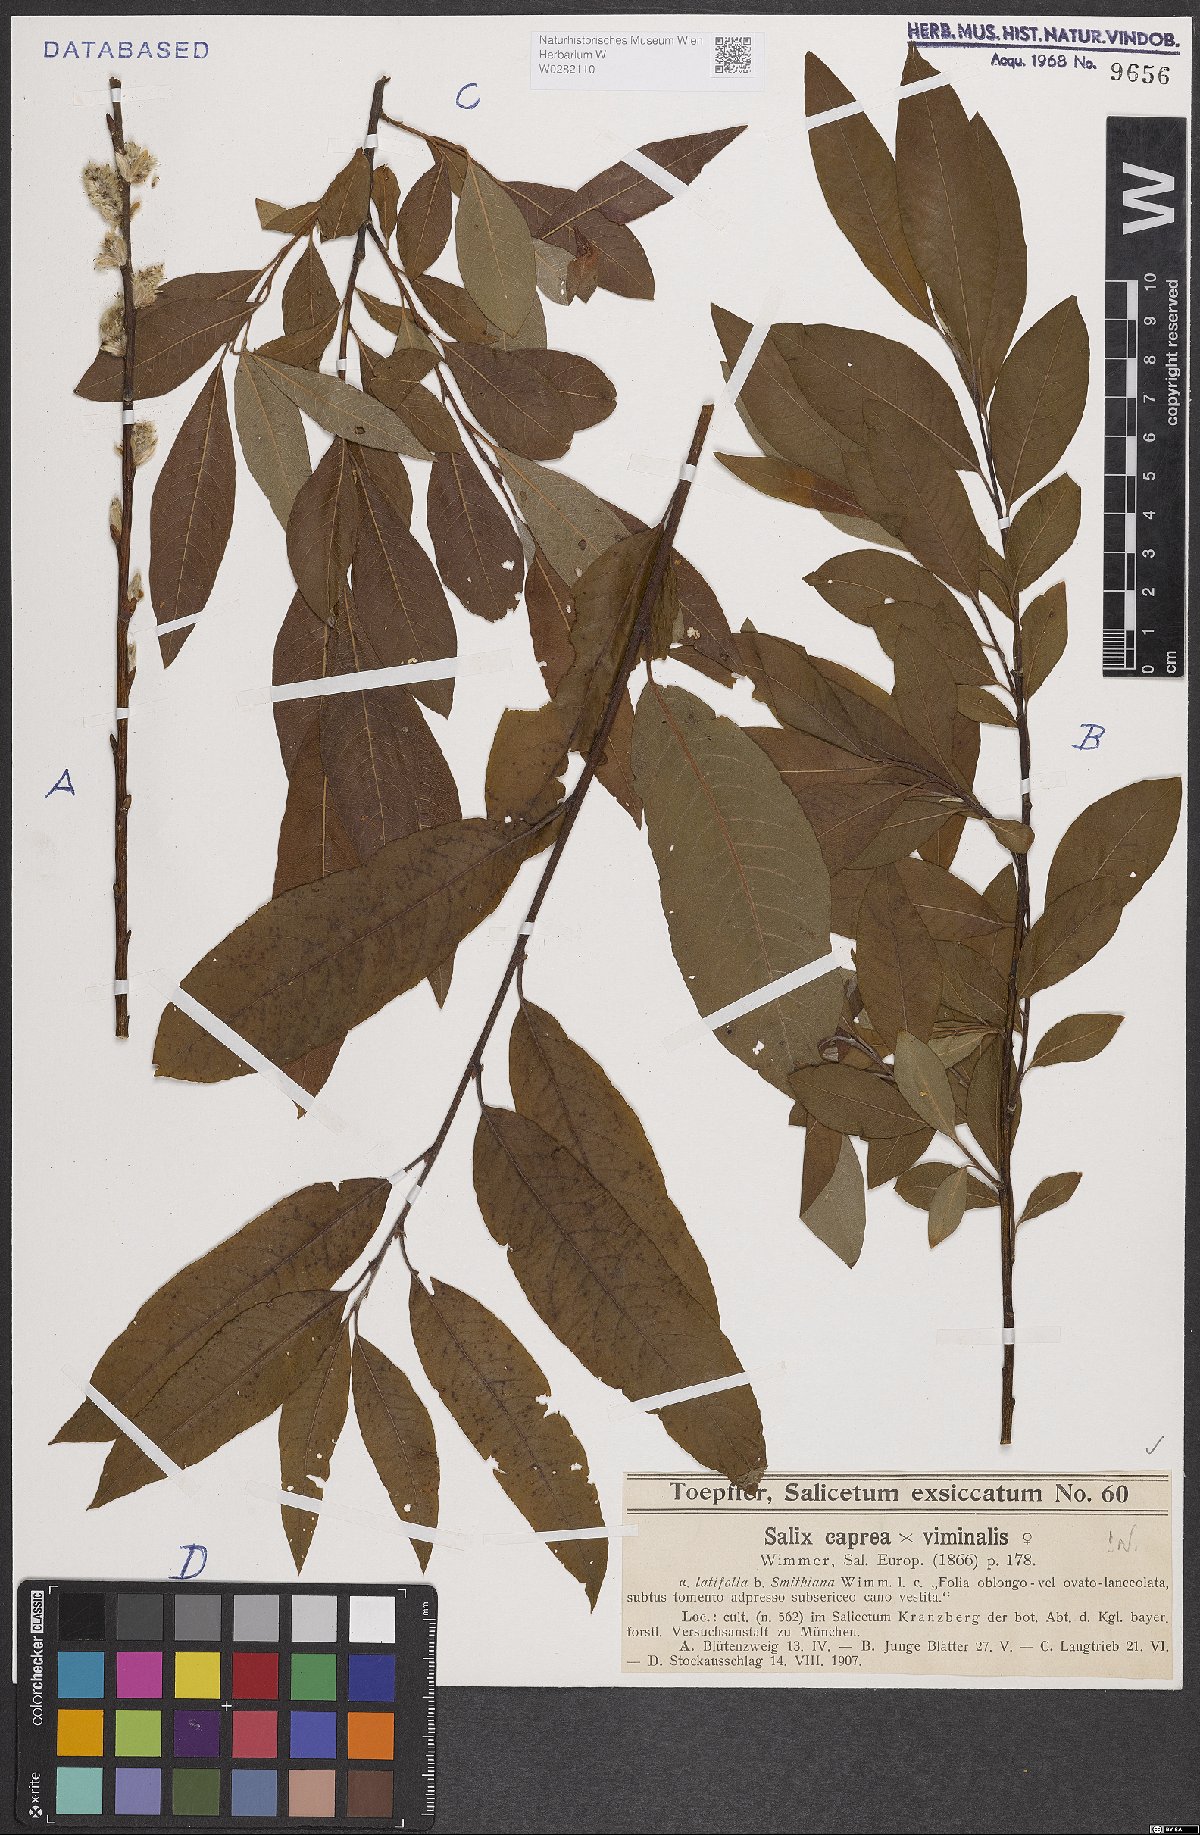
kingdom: Plantae
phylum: Tracheophyta
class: Magnoliopsida
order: Malpighiales
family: Salicaceae
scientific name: Salicaceae
